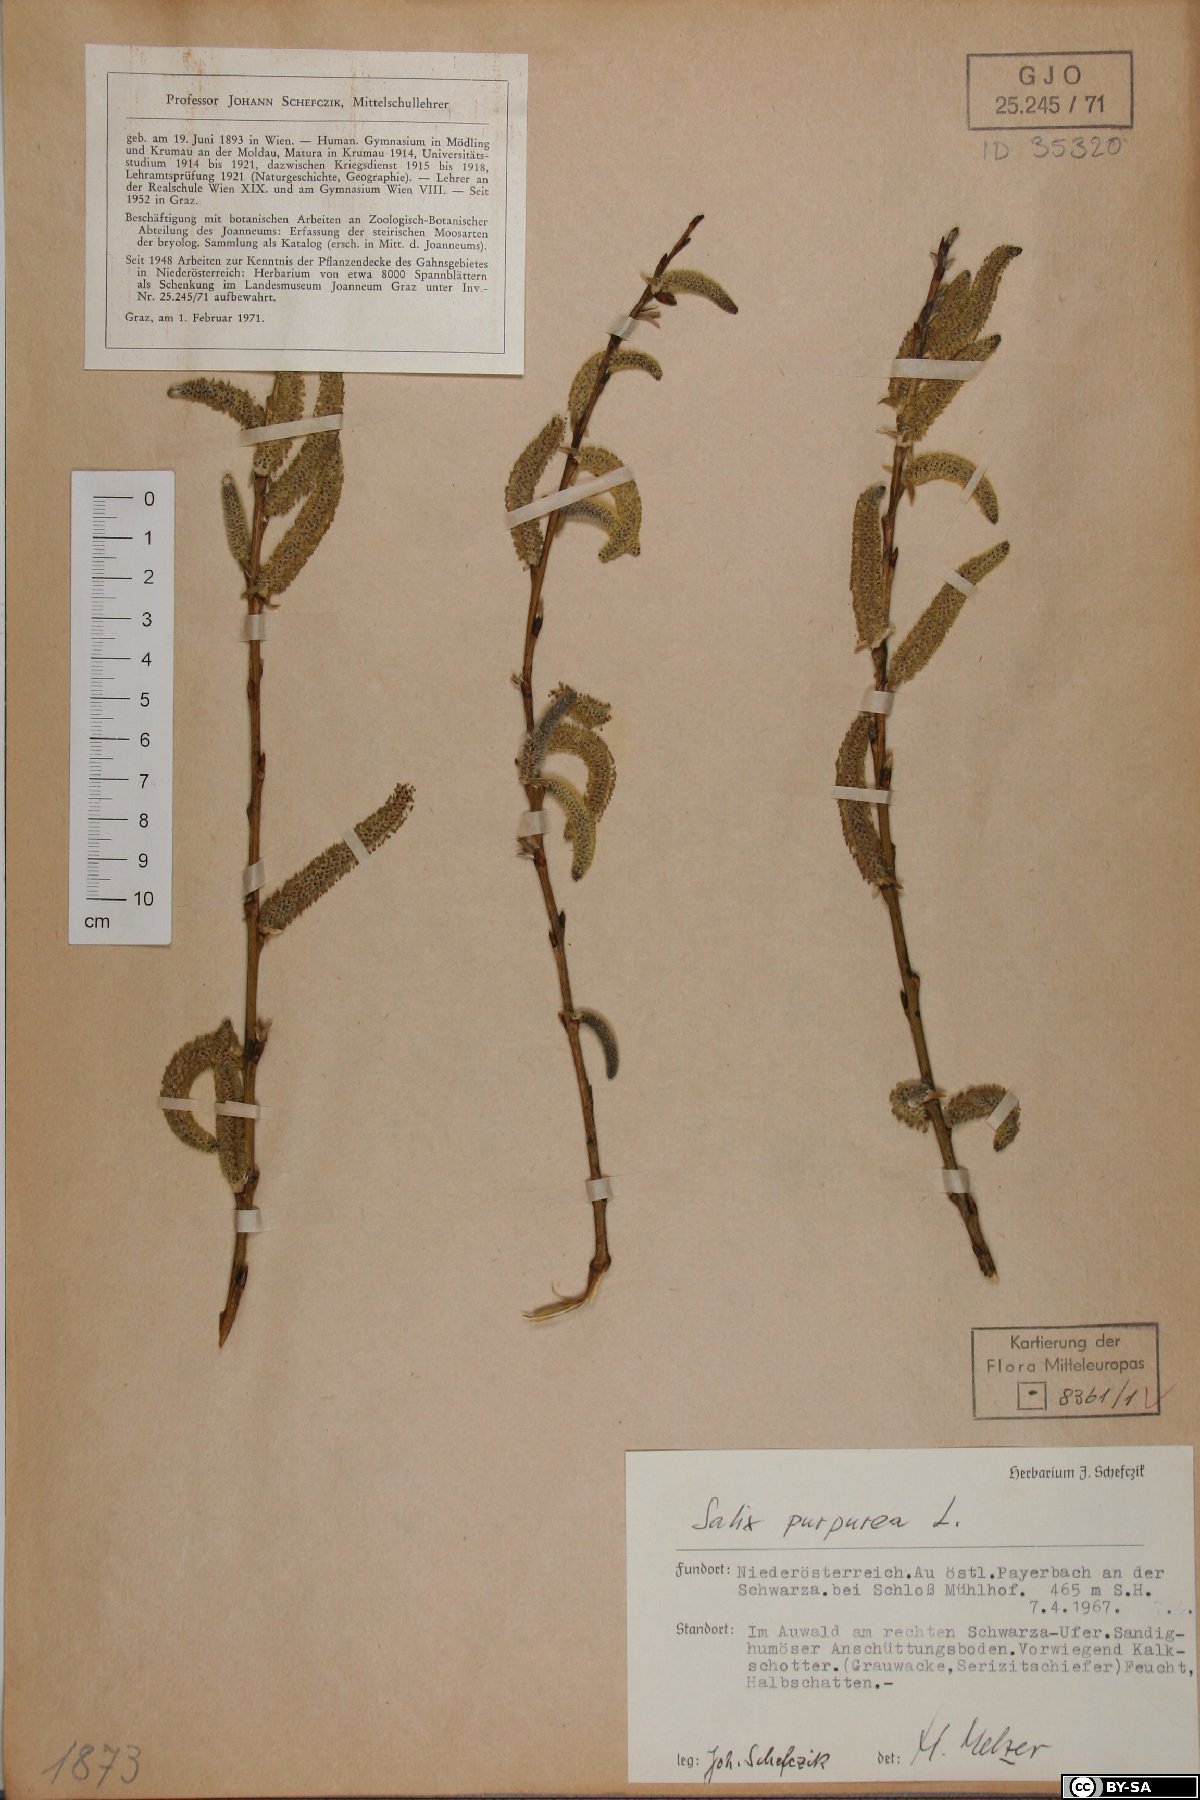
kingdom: Plantae
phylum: Tracheophyta
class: Magnoliopsida
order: Malpighiales
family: Salicaceae
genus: Salix
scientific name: Salix purpurea
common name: Purple willow
